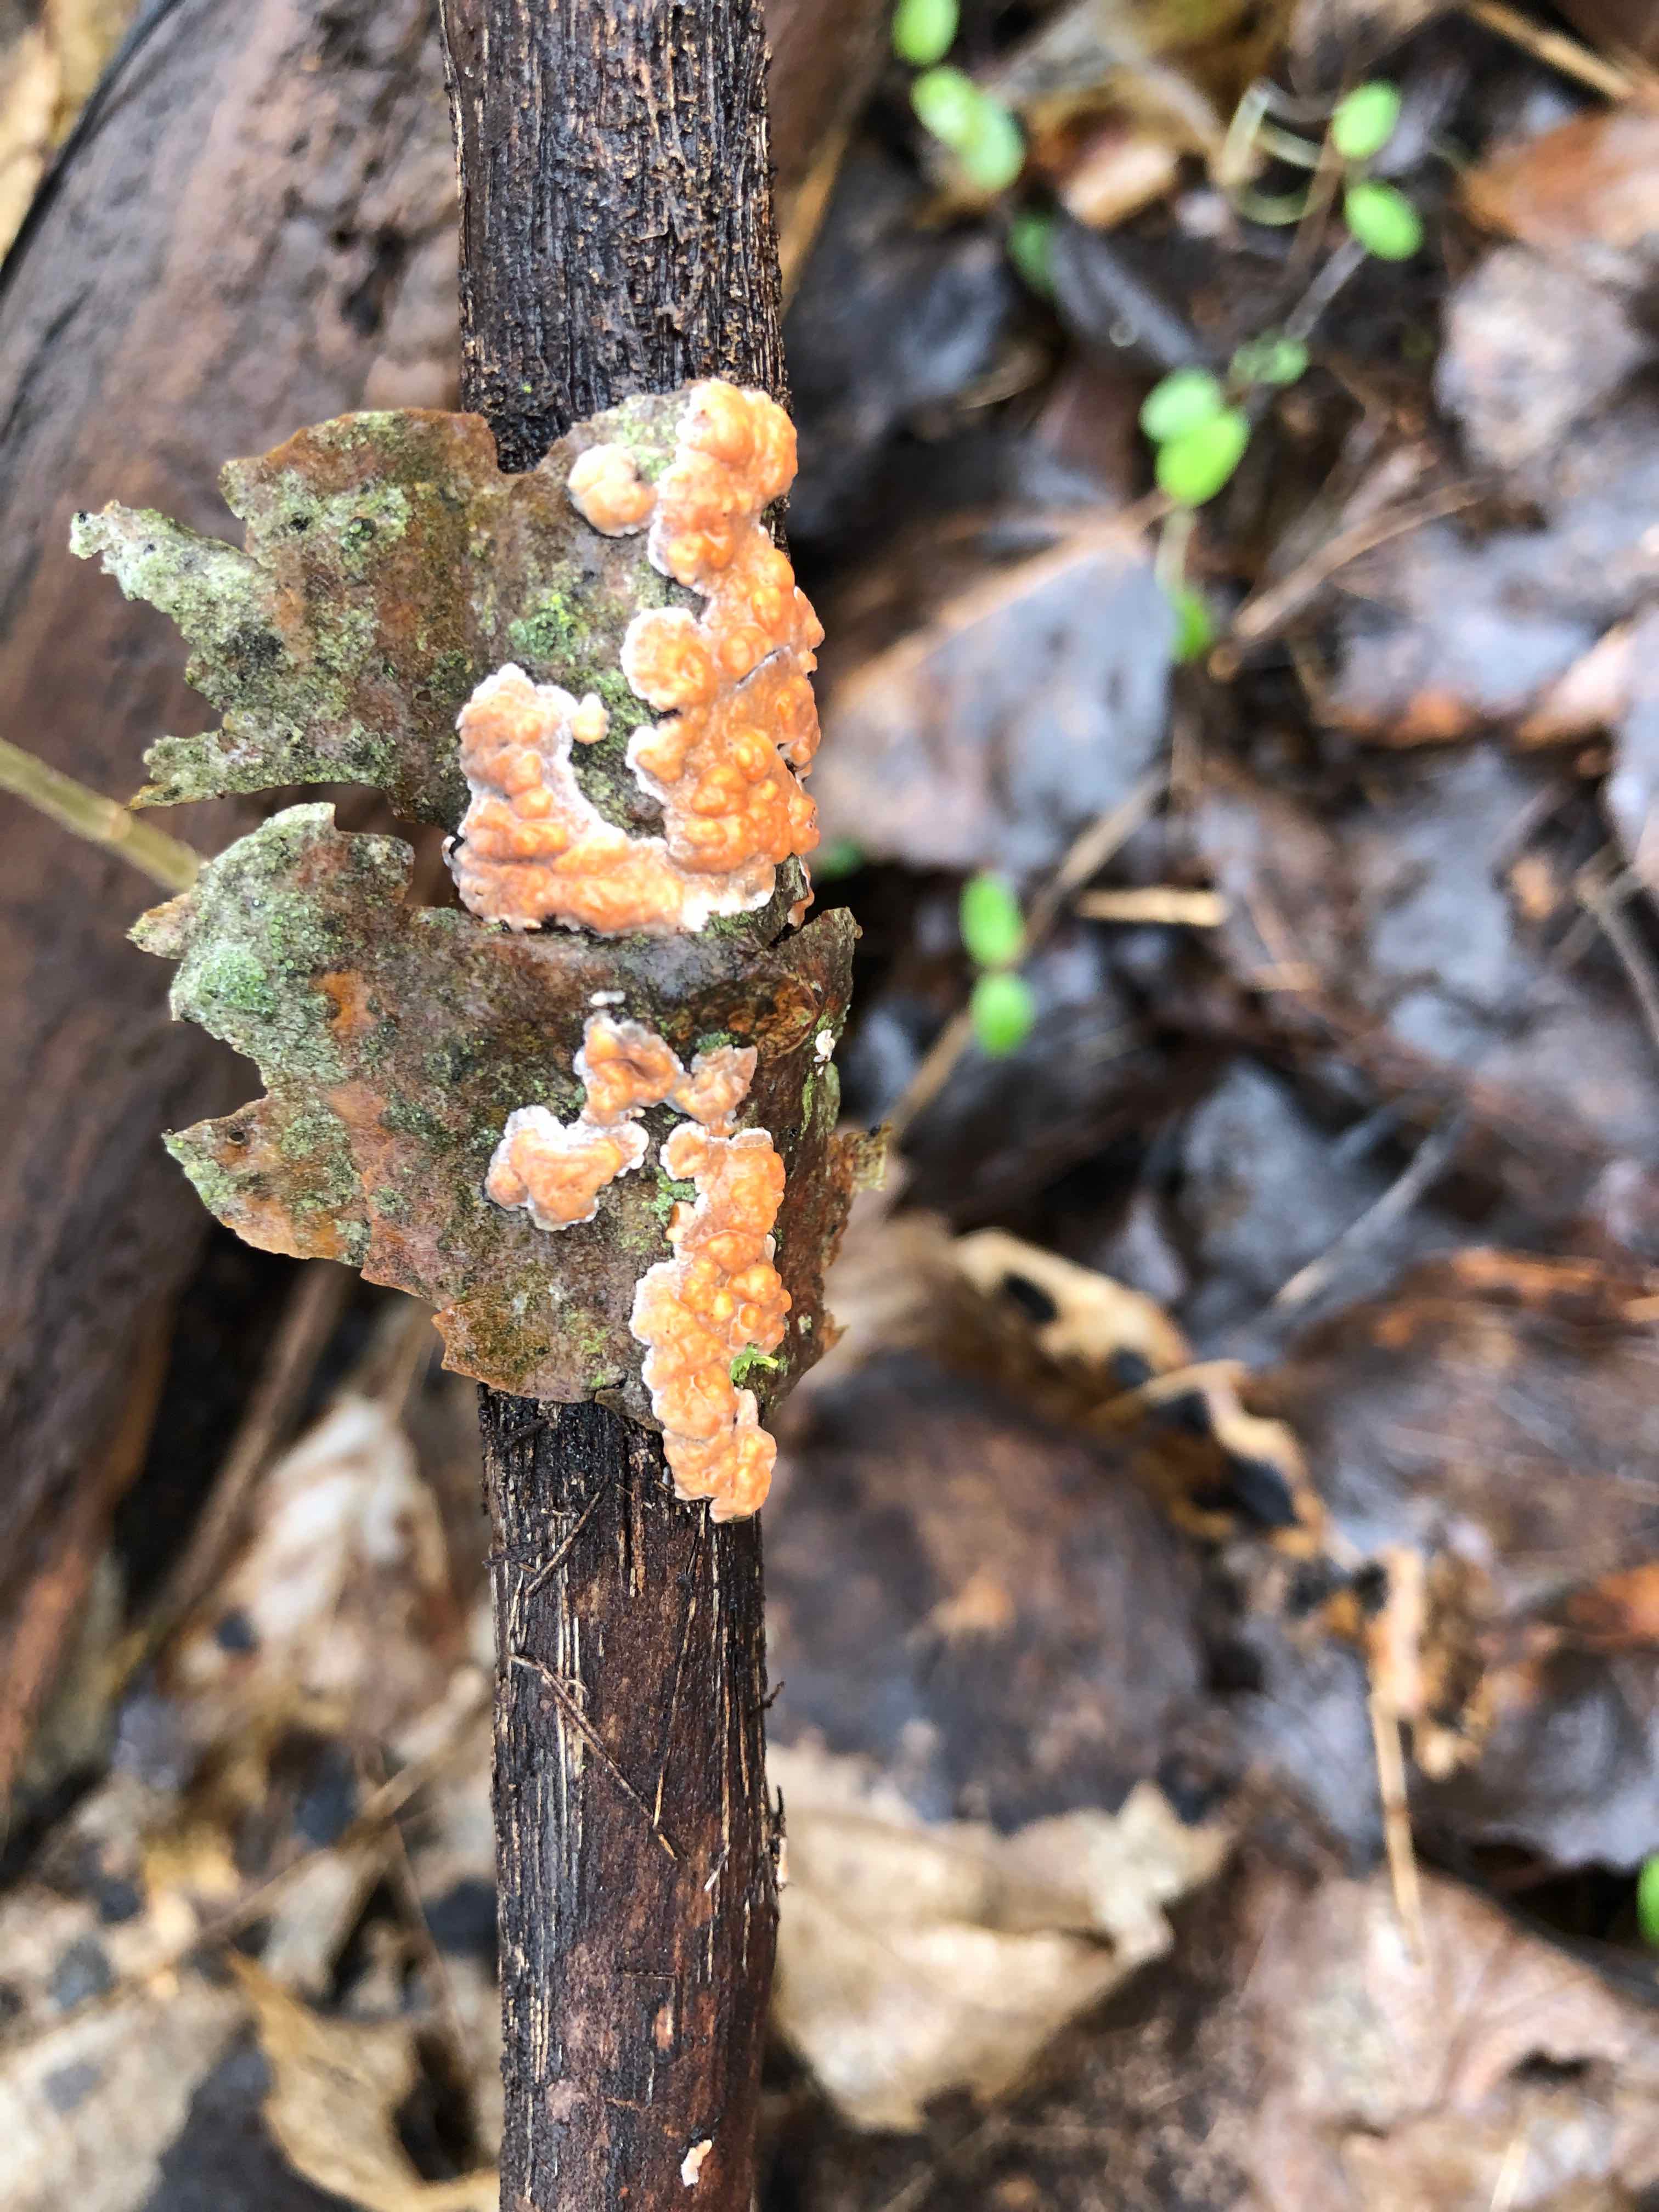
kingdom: Fungi
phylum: Basidiomycota
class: Agaricomycetes
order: Russulales
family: Peniophoraceae
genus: Peniophora
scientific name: Peniophora incarnata
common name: laksefarvet voksskind
